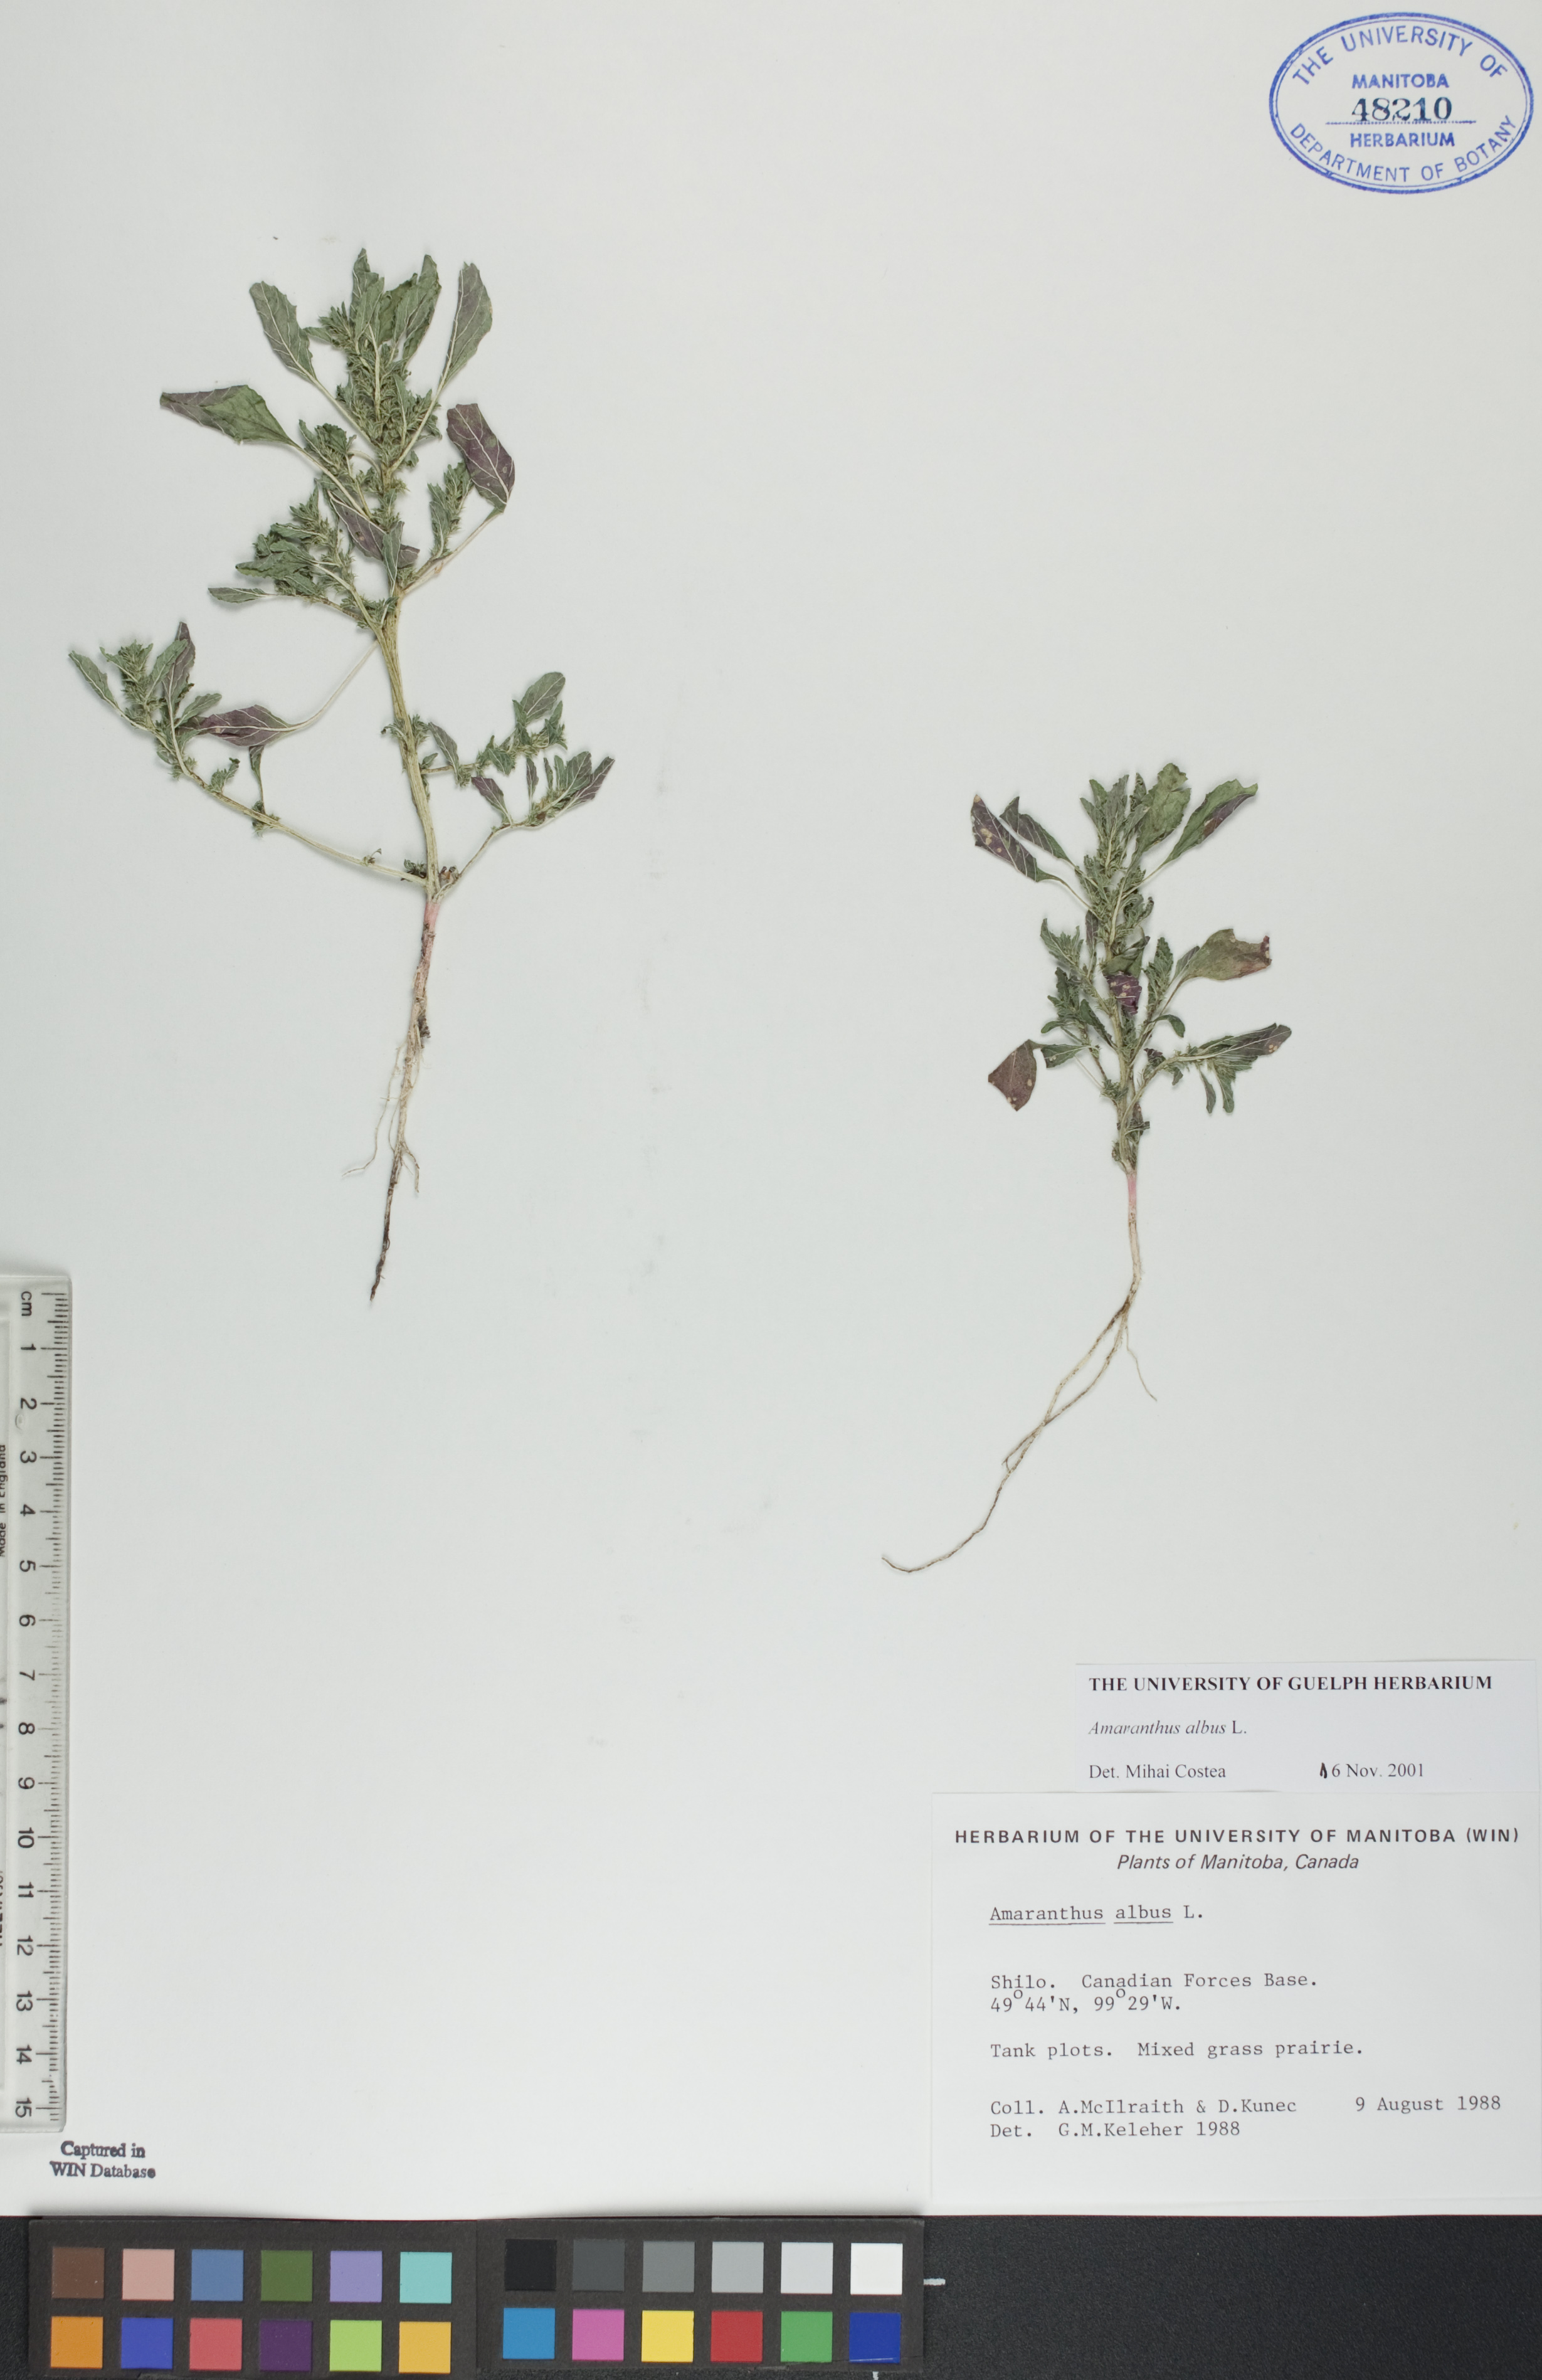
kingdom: Plantae
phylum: Tracheophyta
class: Magnoliopsida
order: Caryophyllales
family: Amaranthaceae
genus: Amaranthus
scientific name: Amaranthus albus
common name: White pigweed
